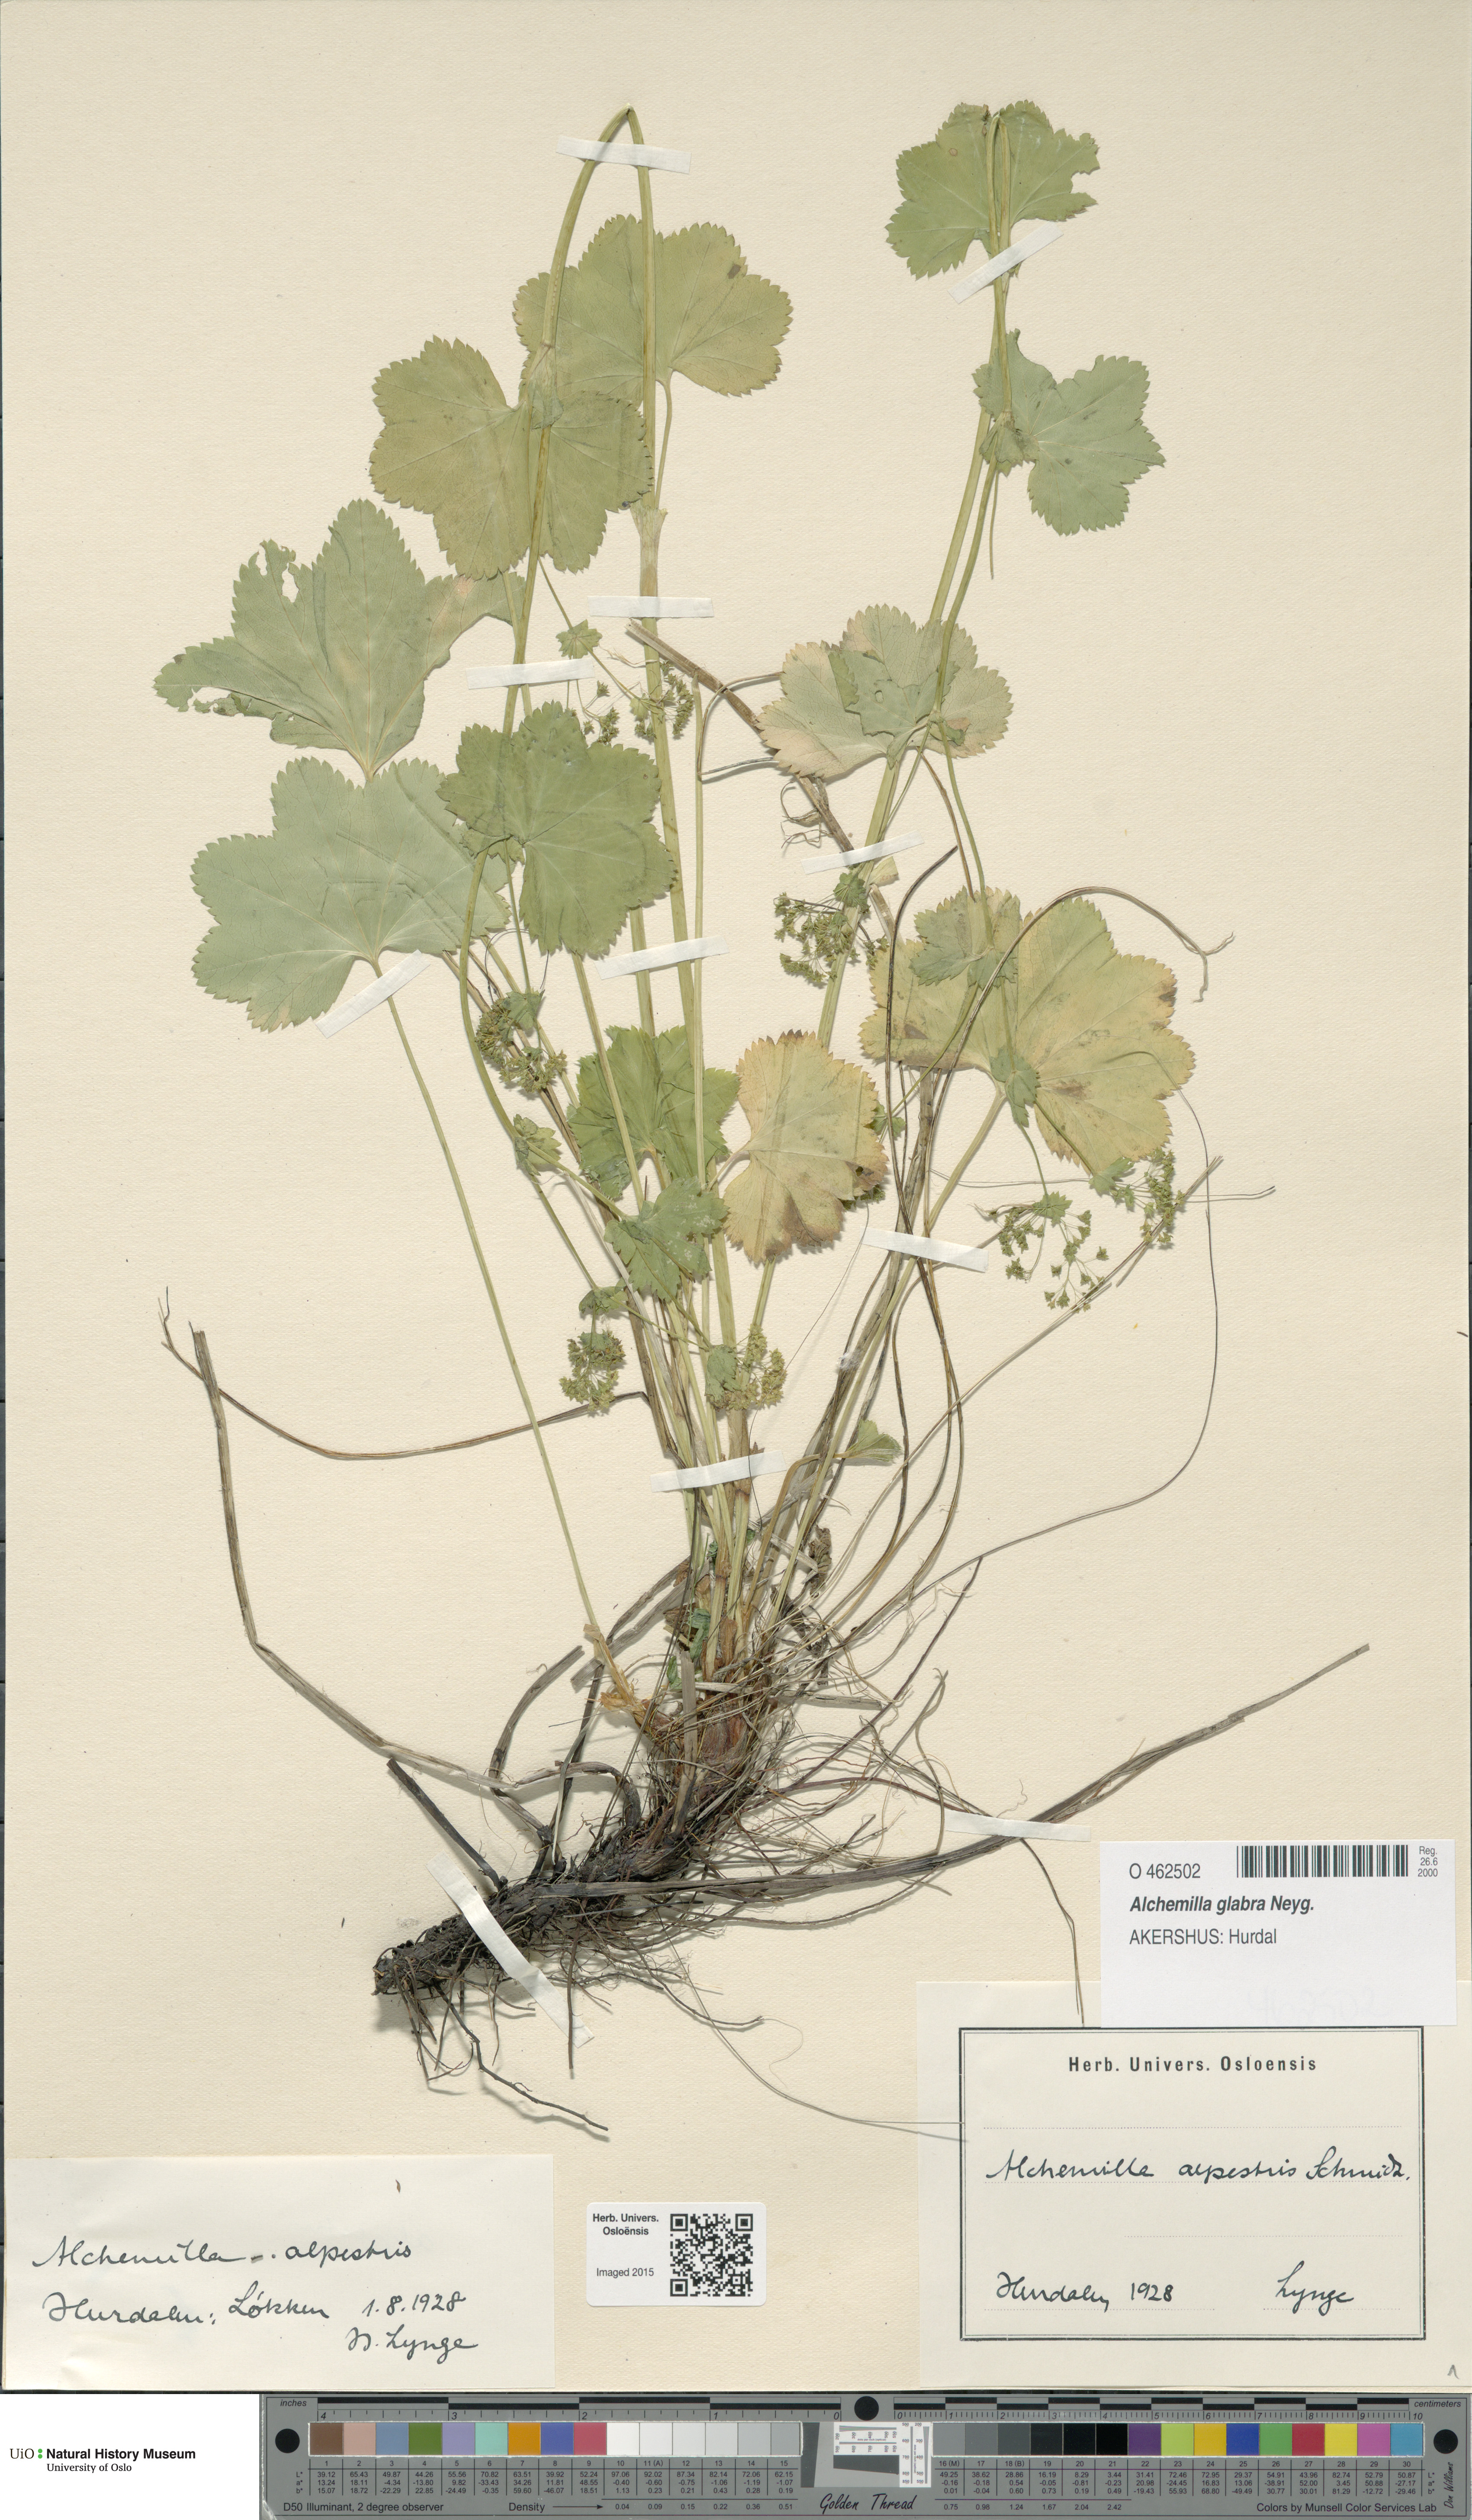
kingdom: Plantae
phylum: Tracheophyta
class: Magnoliopsida
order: Rosales
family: Rosaceae
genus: Alchemilla
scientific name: Alchemilla glabra
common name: Smooth lady's-mantle
